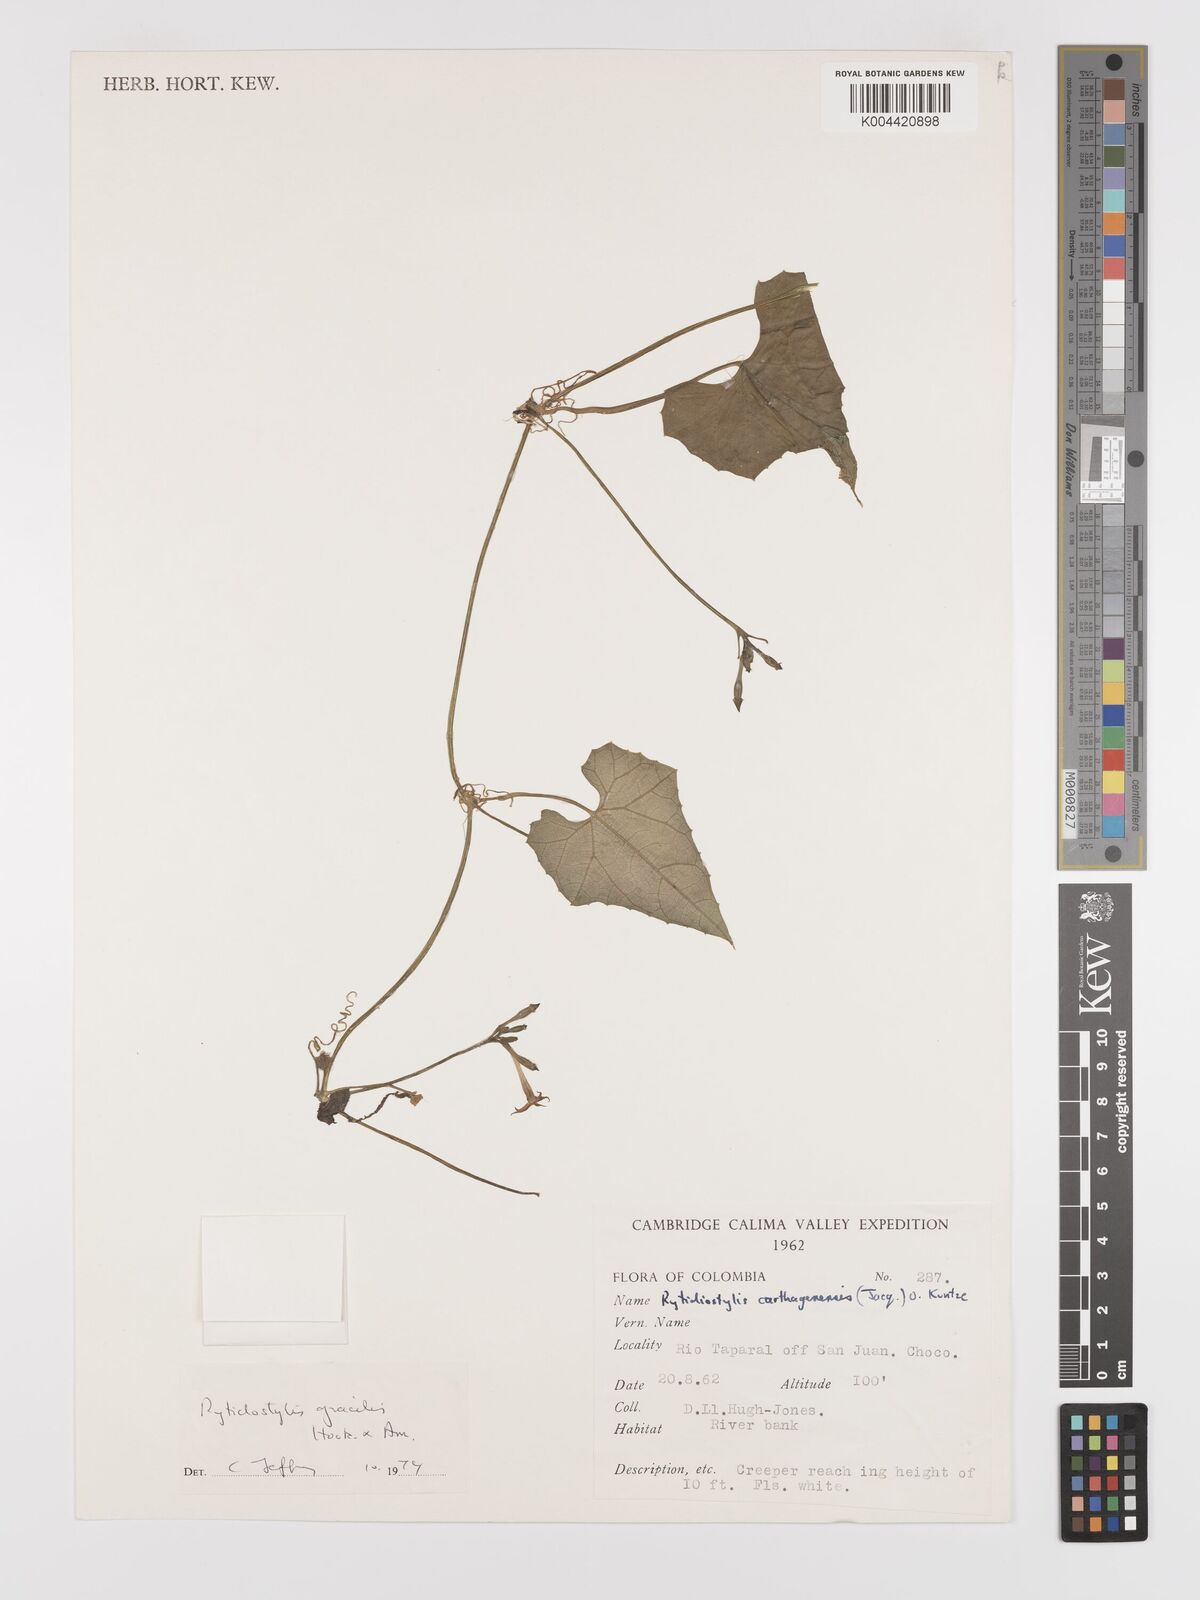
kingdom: Plantae
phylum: Tracheophyta
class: Magnoliopsida
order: Cucurbitales
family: Cucurbitaceae
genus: Cyclanthera
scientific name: Cyclanthera filiformis
